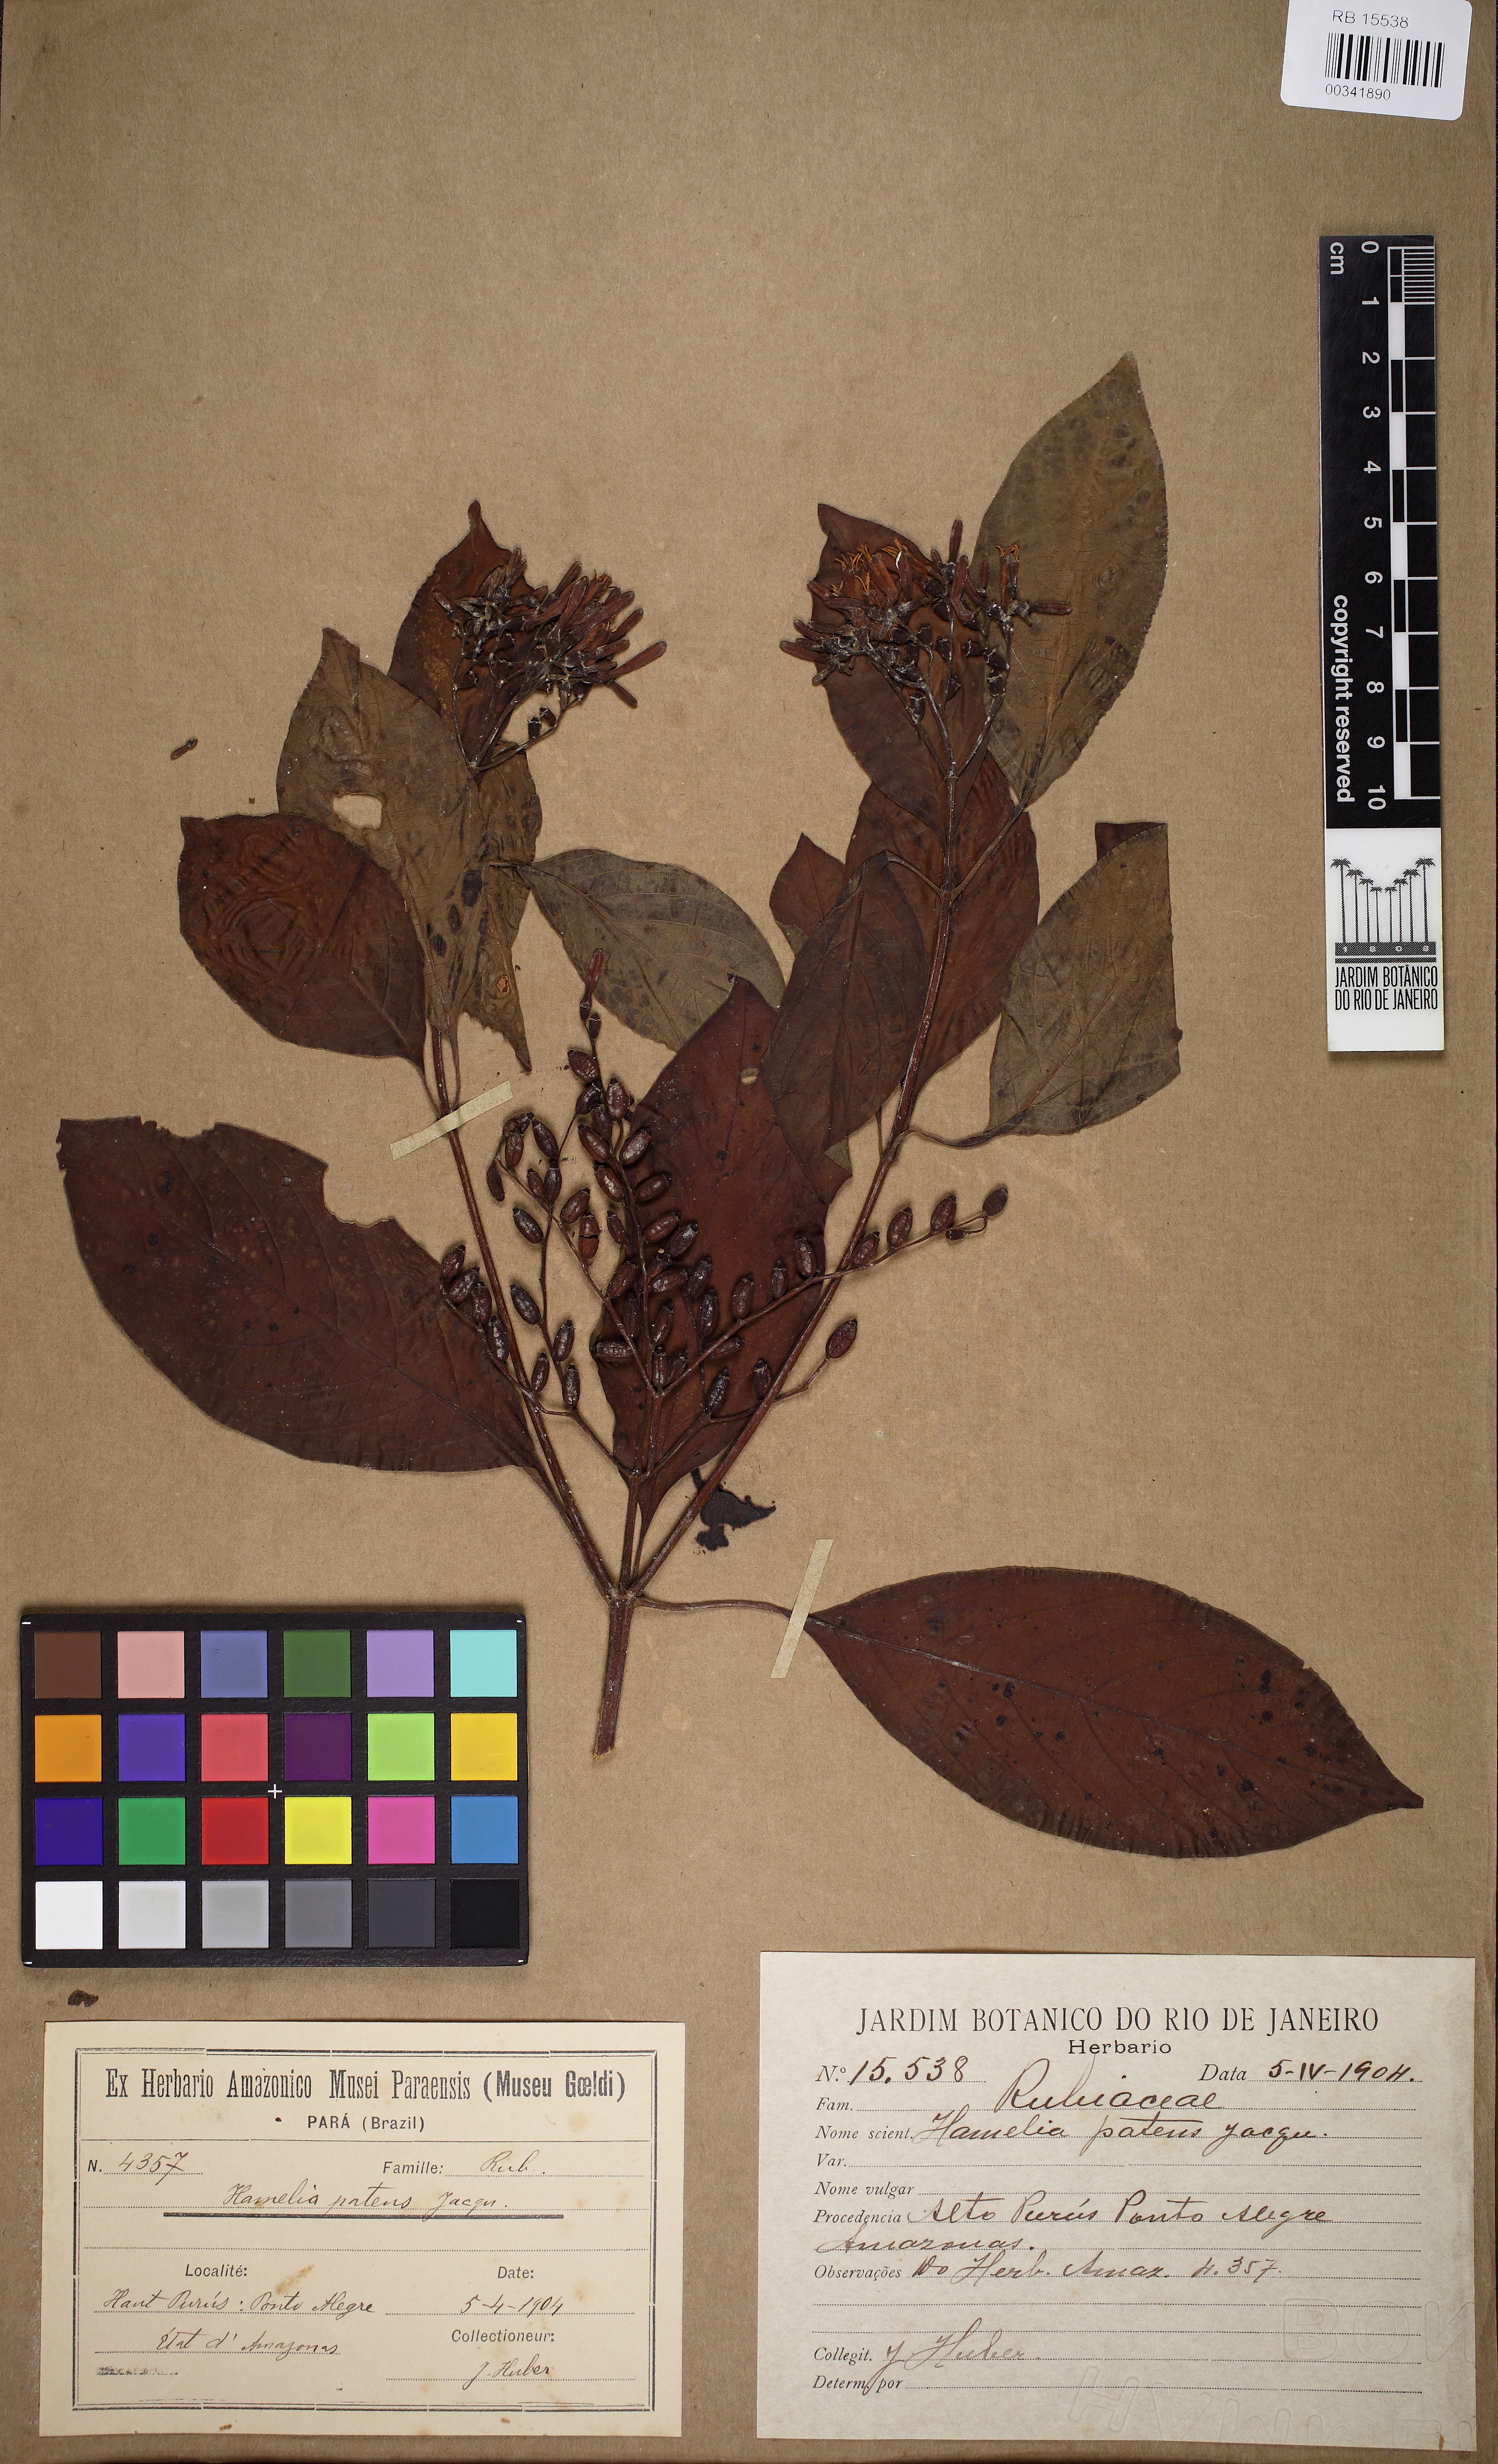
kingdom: Plantae
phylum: Tracheophyta
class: Magnoliopsida
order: Gentianales
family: Rubiaceae
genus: Hamelia
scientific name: Hamelia patens
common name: Redhead
